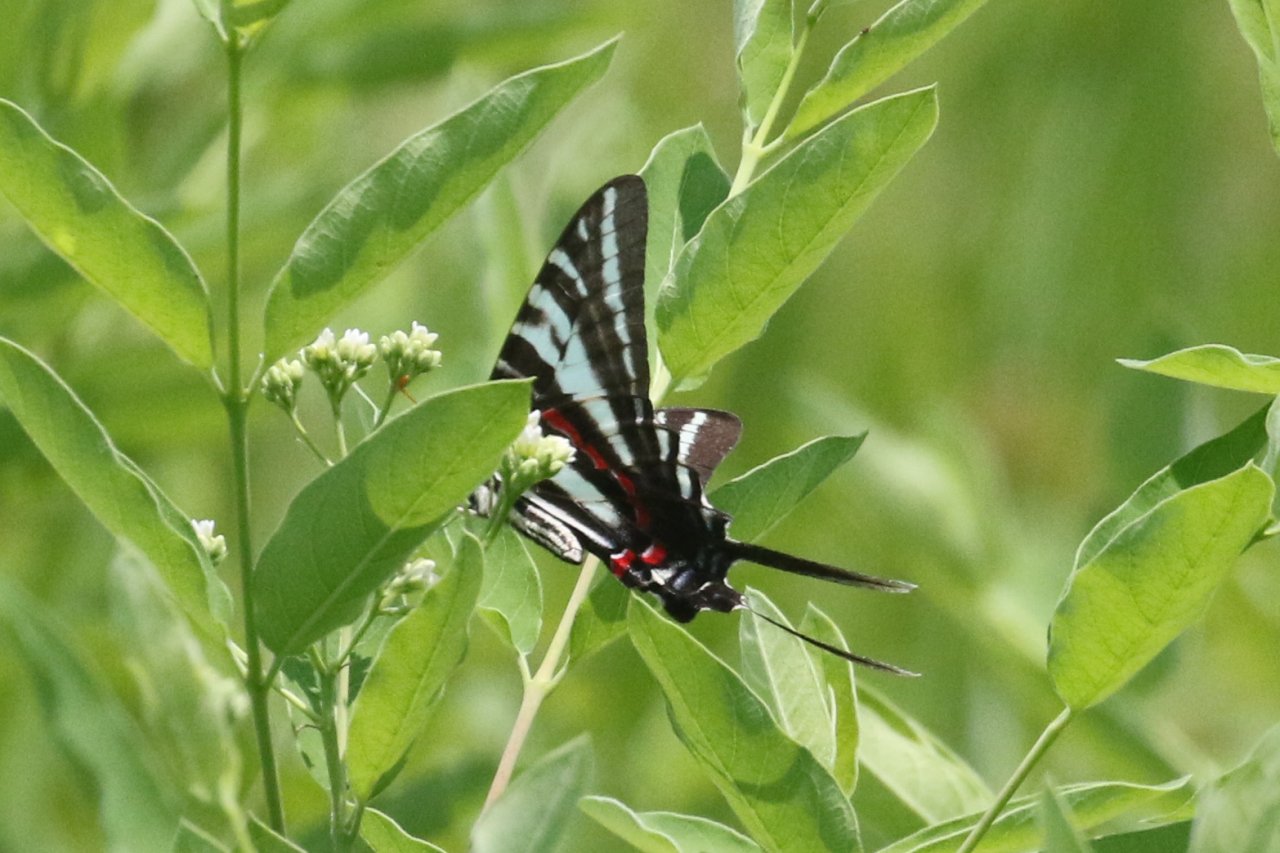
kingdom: Animalia
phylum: Arthropoda
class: Insecta
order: Lepidoptera
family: Papilionidae
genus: Protographium
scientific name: Protographium marcellus
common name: Zebra Swallowtail
